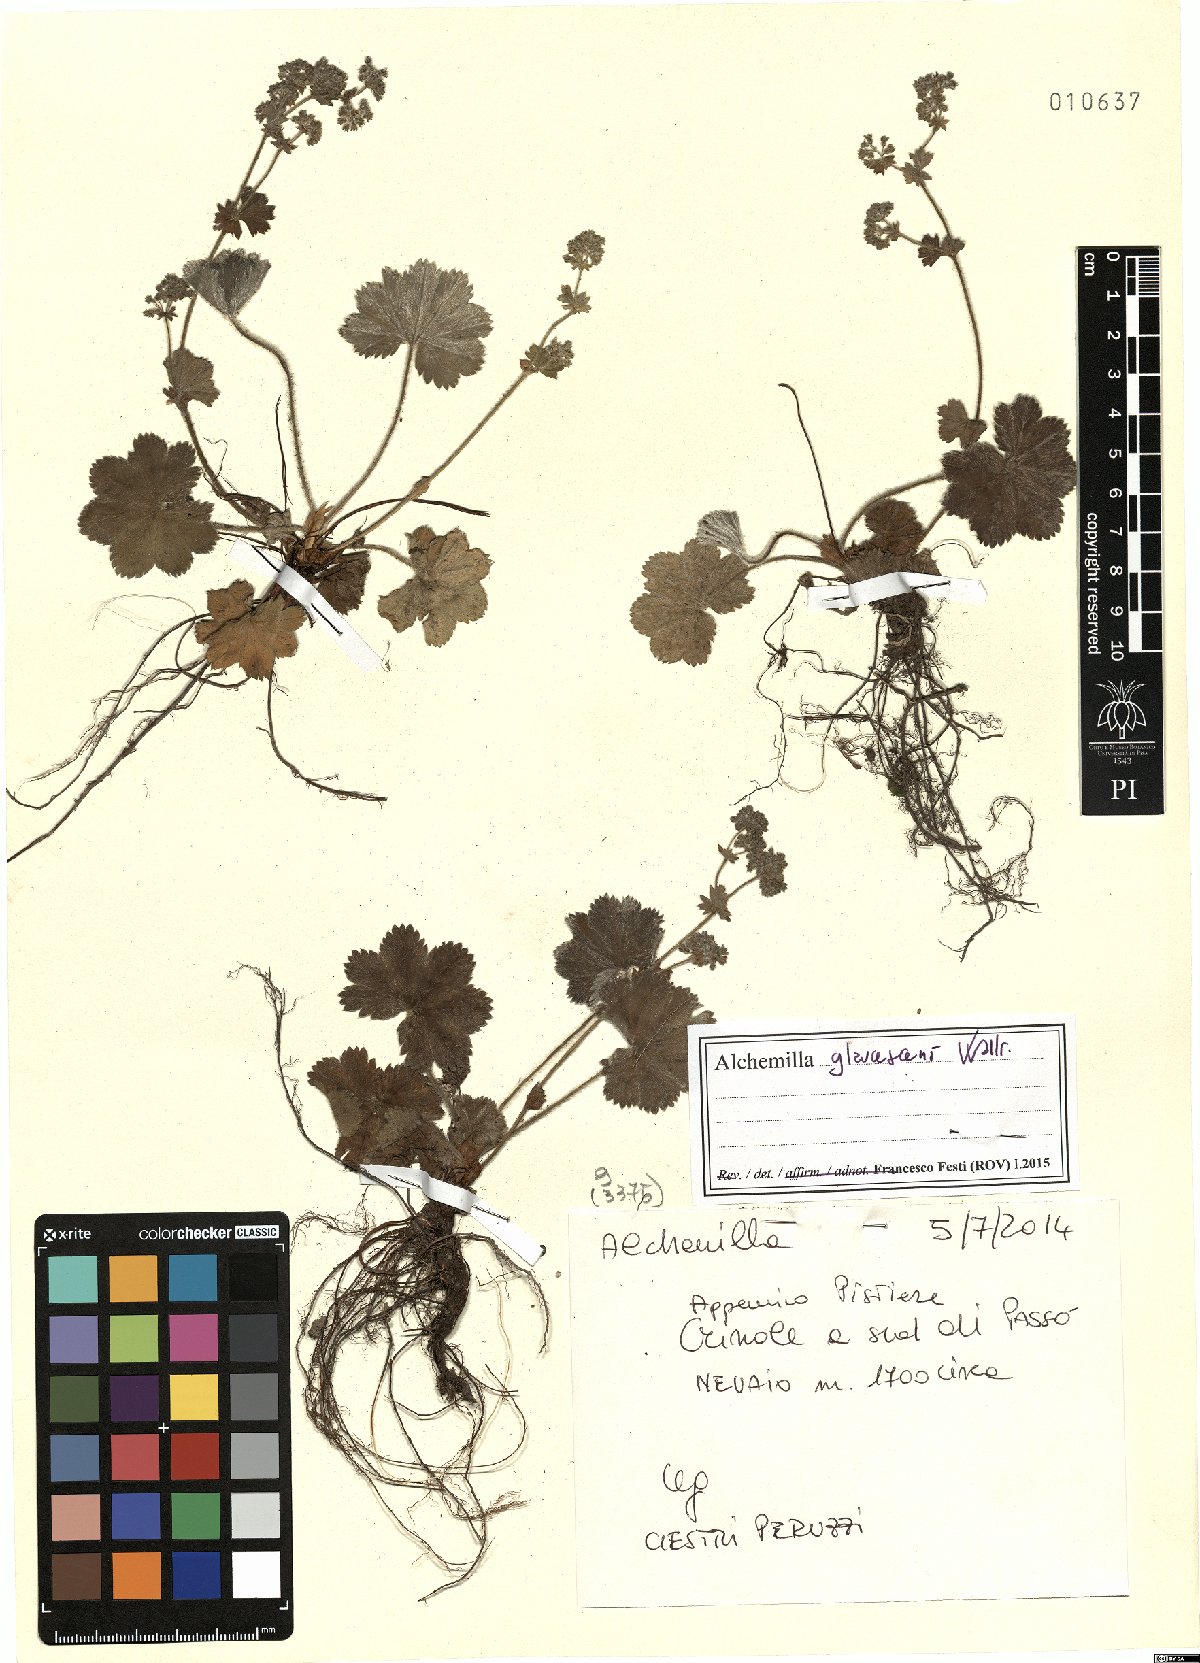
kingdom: Plantae
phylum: Tracheophyta
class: Magnoliopsida
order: Rosales
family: Rosaceae
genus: Alchemilla
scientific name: Alchemilla glaucescens
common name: Silky lady's mantle
